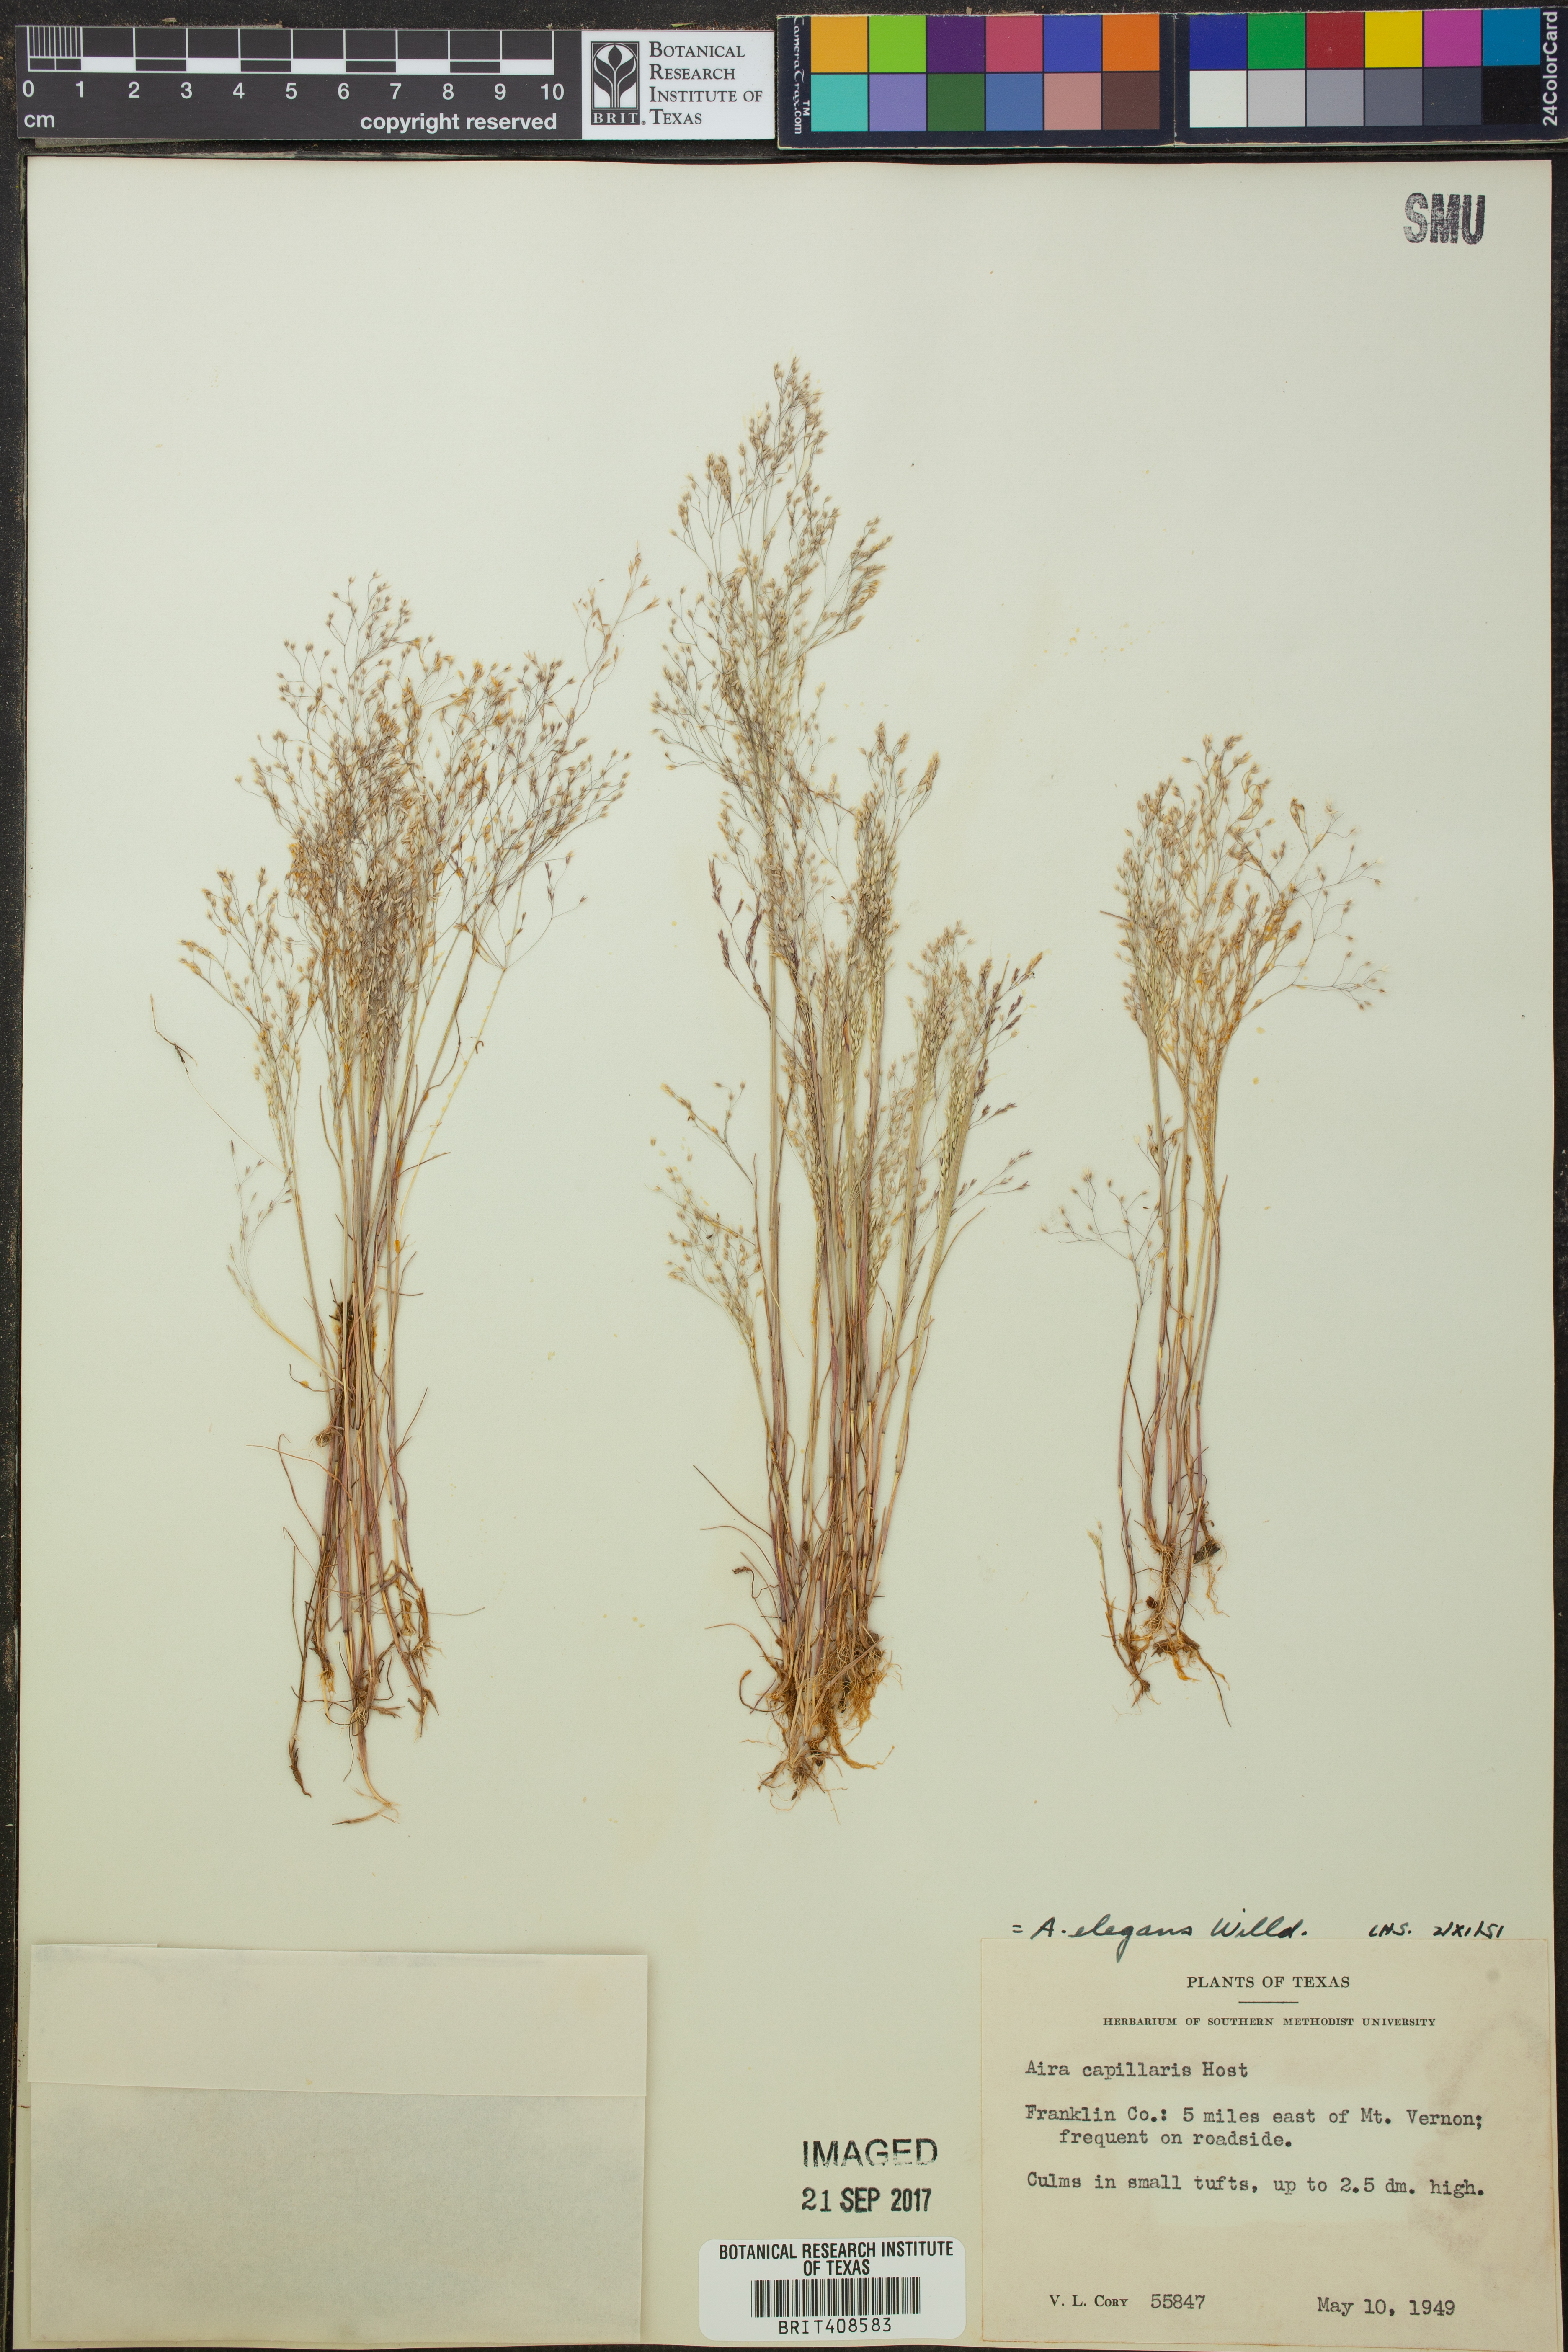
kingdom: Plantae
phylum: Tracheophyta
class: Liliopsida
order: Poales
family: Poaceae
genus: Aira
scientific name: Aira elegans
